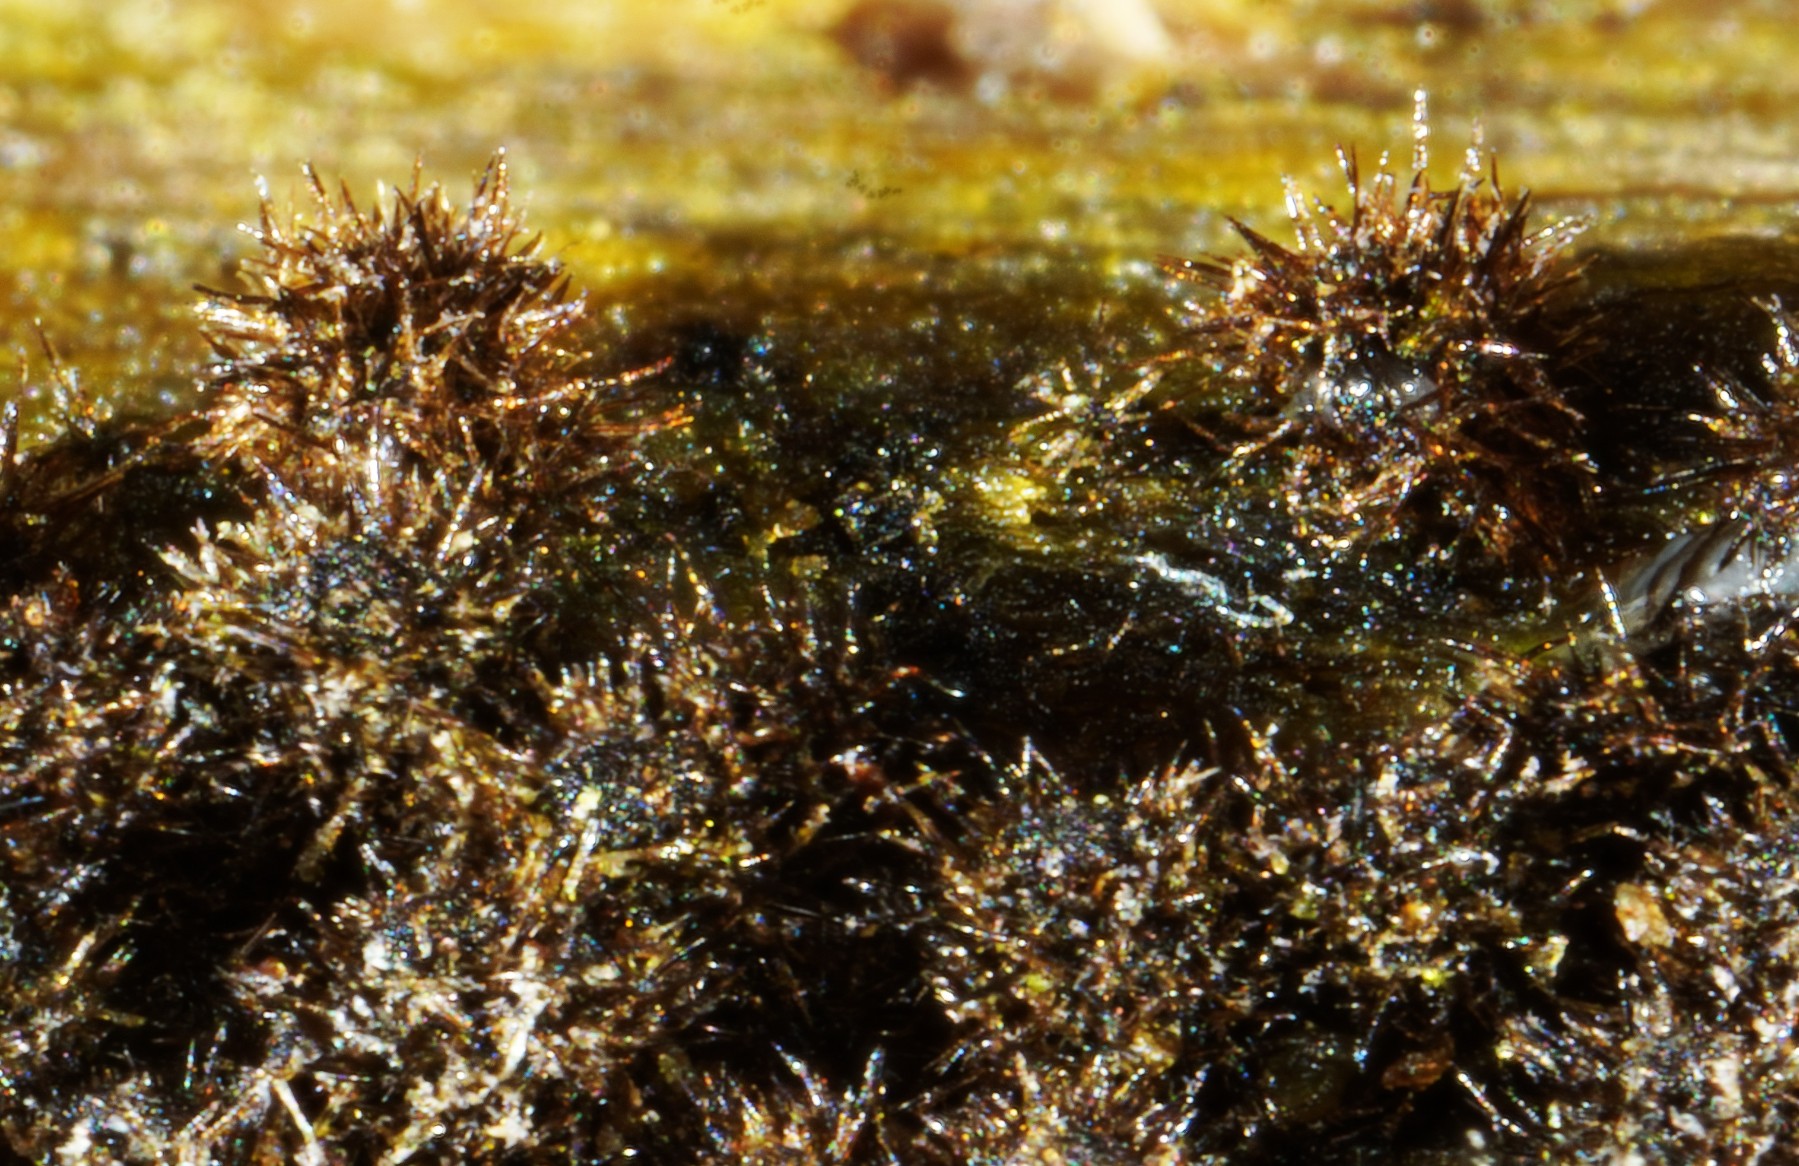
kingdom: Fungi
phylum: Ascomycota
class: Sordariomycetes
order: Sordariales
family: Helminthosphaeriaceae
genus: Echinosphaeria
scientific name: Echinosphaeria canescens
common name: brun børstekerne
